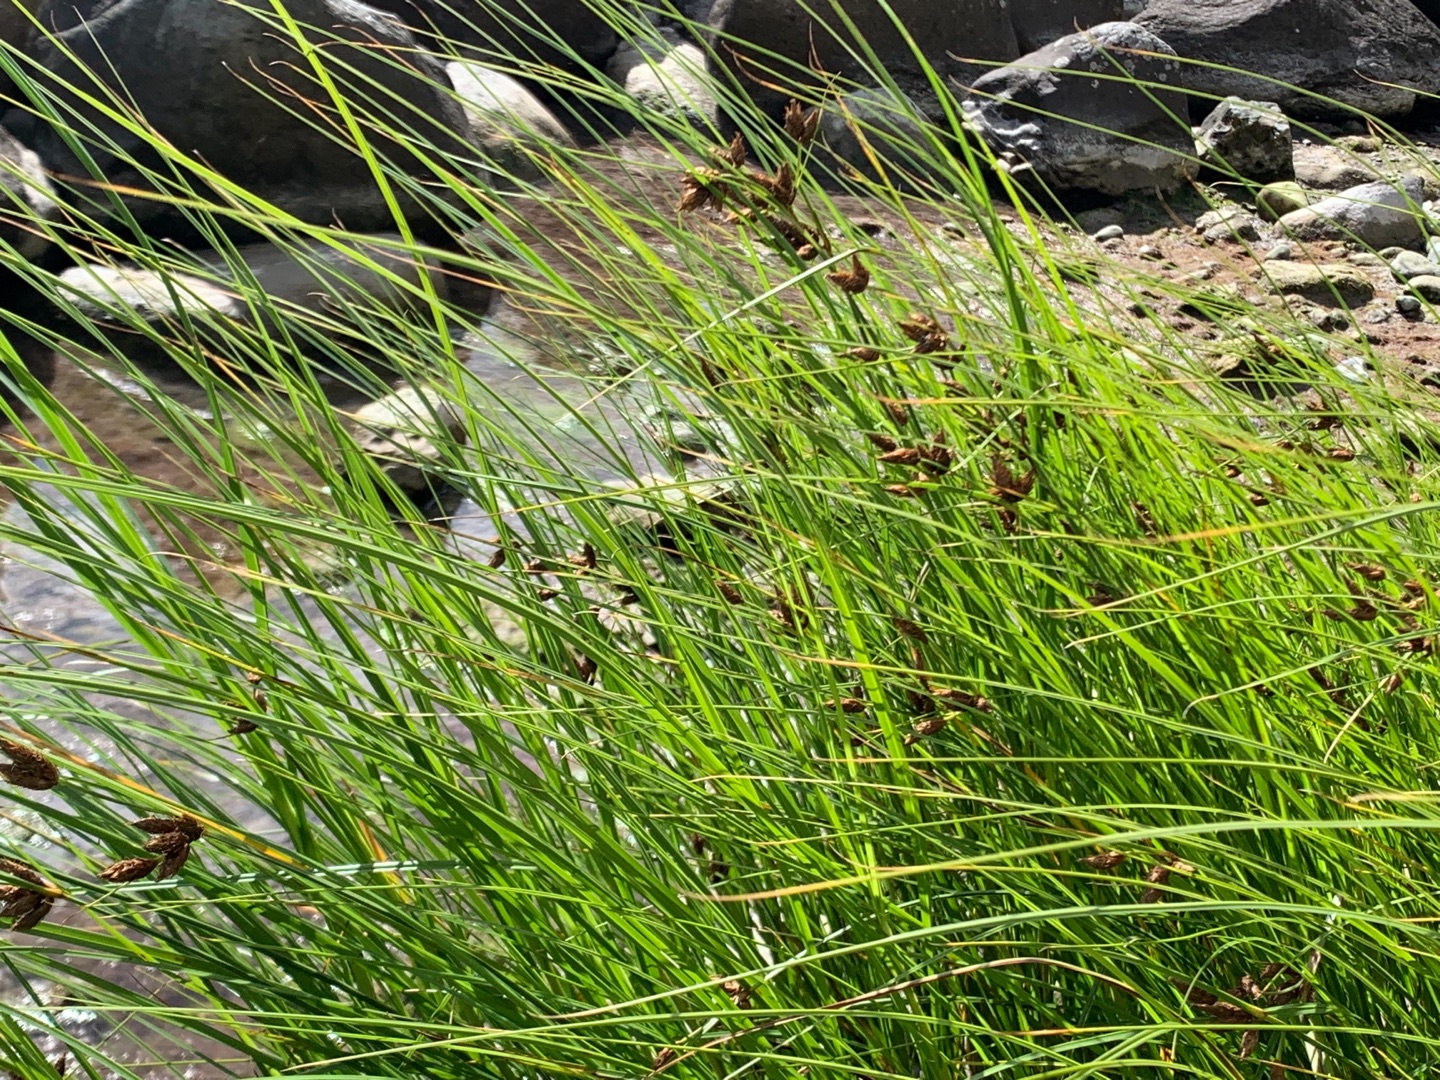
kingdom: Plantae
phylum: Tracheophyta
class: Liliopsida
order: Poales
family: Cyperaceae
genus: Bolboschoenus
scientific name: Bolboschoenus maritimus
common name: Strand-kogleaks
